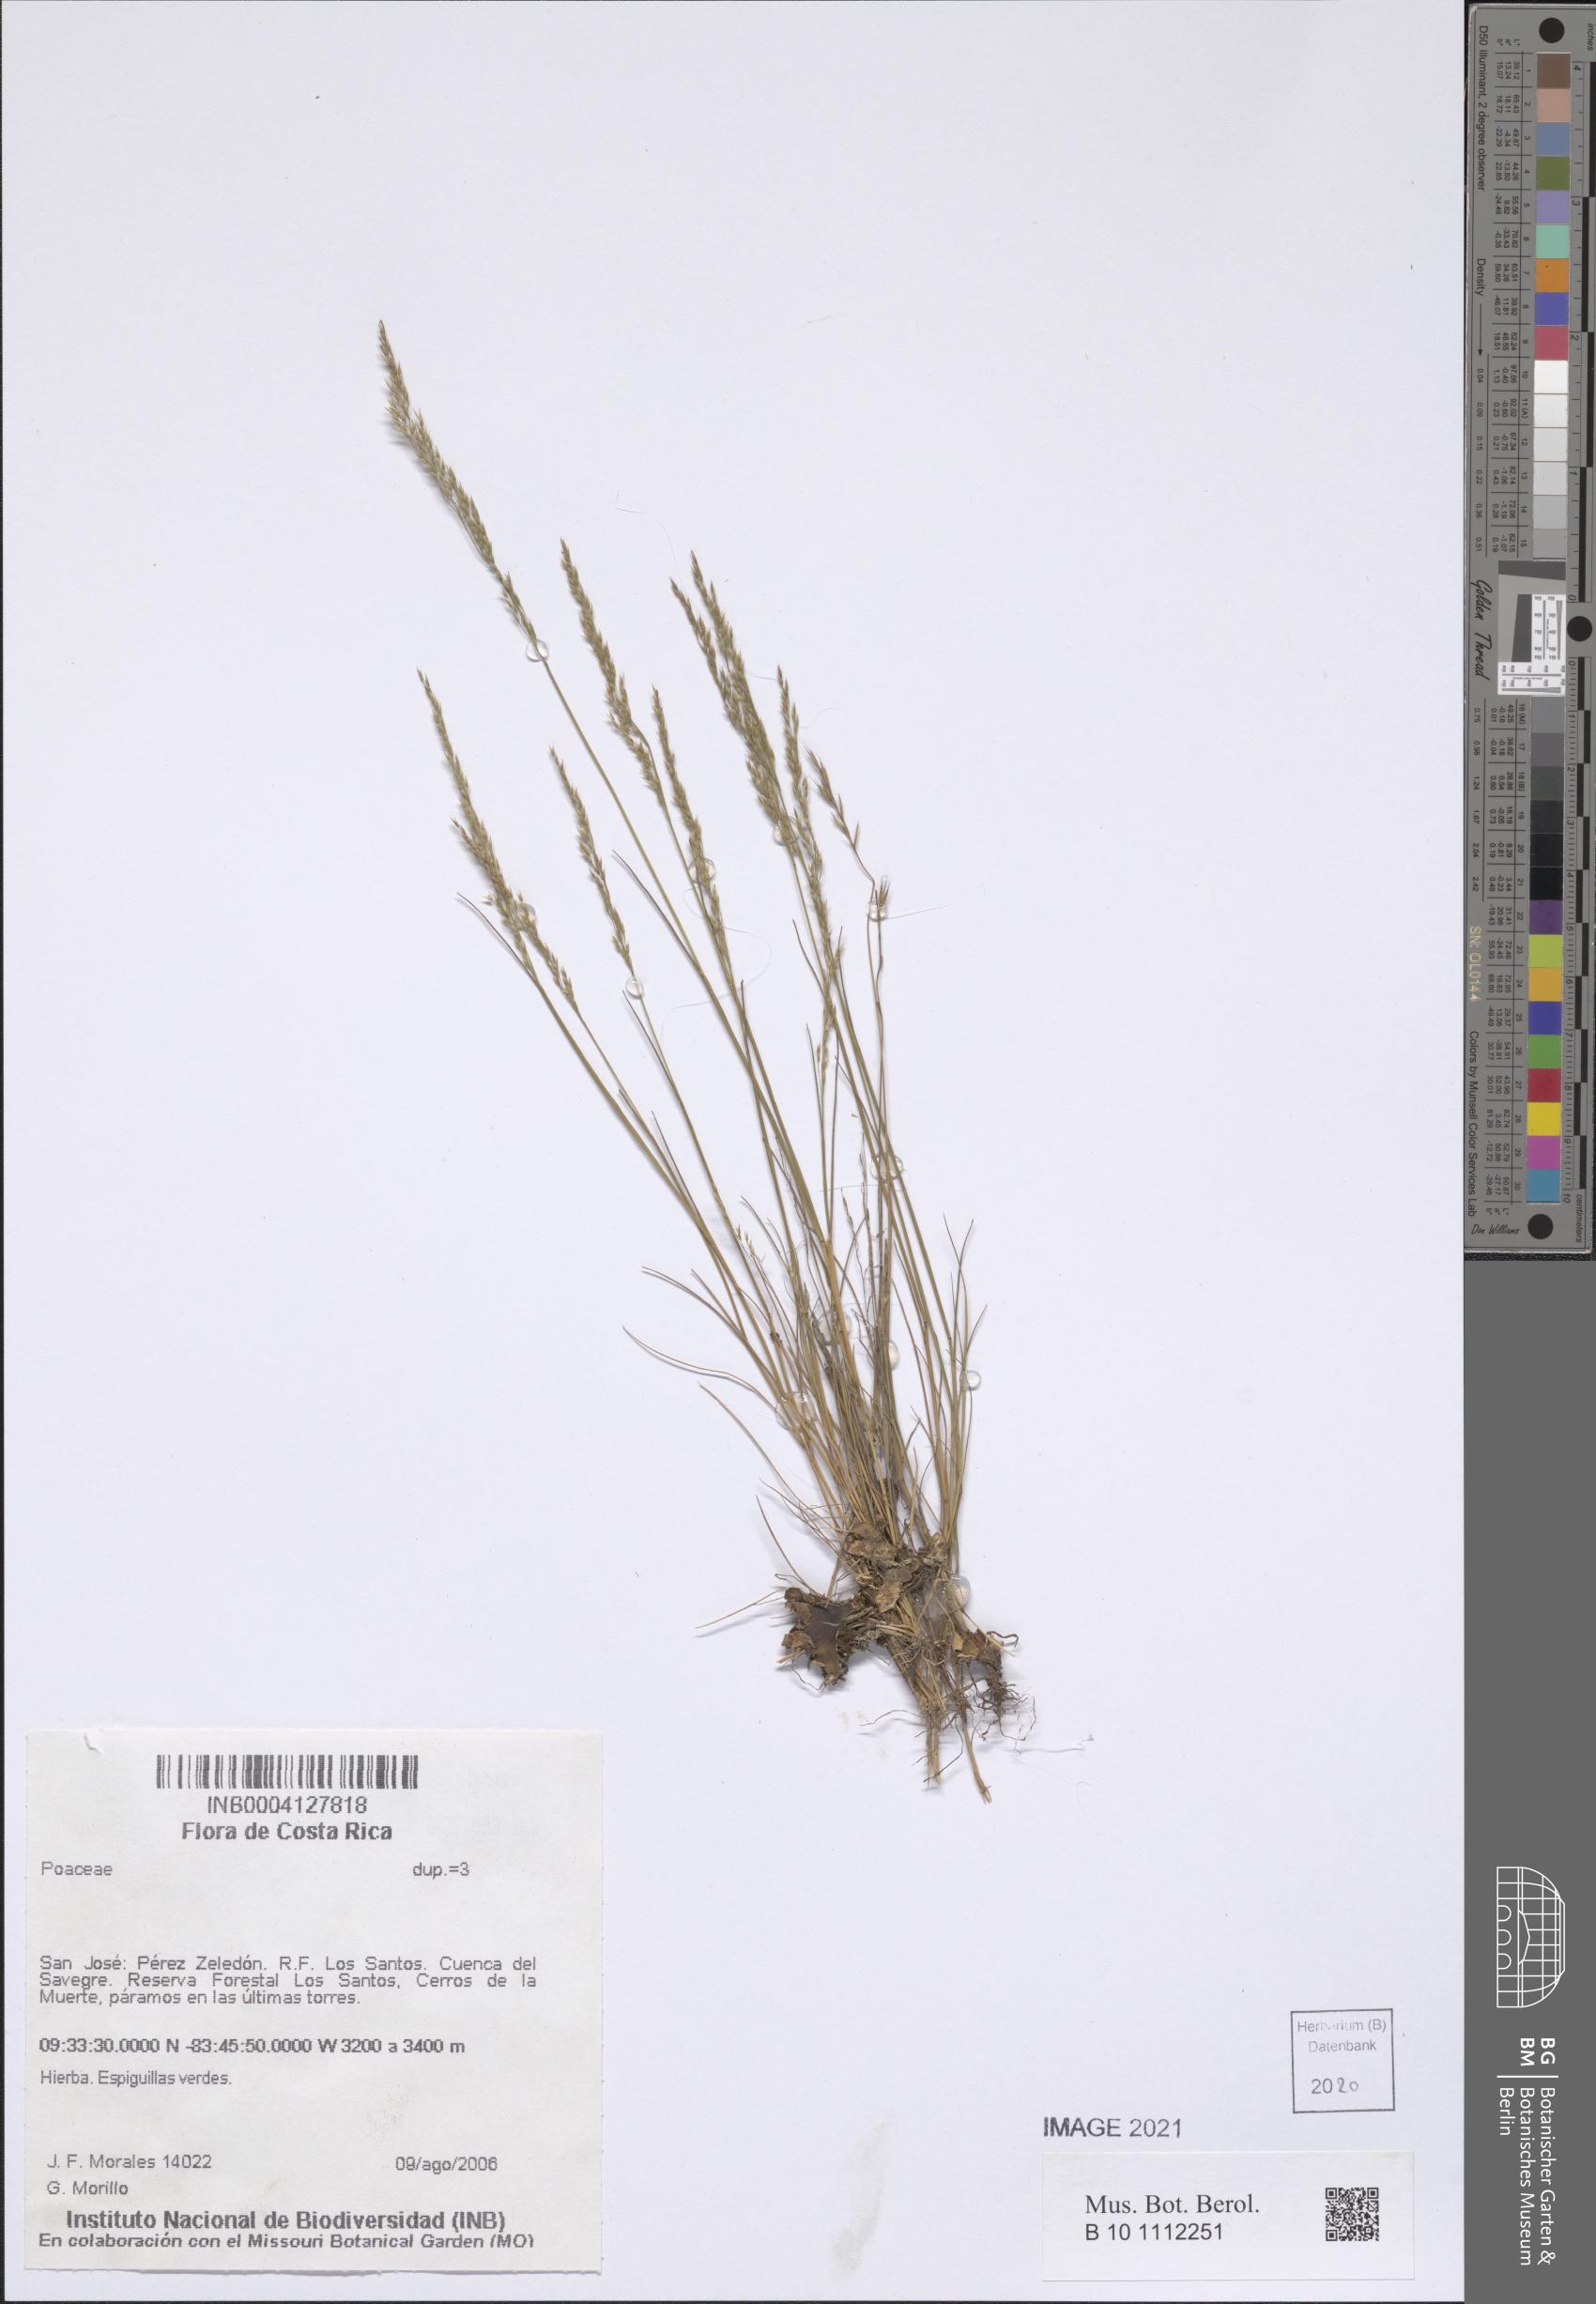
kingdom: Plantae
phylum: Tracheophyta
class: Liliopsida
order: Poales
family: Poaceae
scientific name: Poaceae
